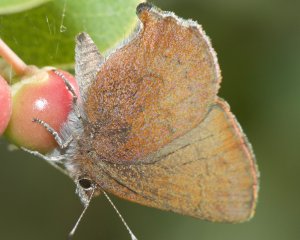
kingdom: Animalia
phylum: Arthropoda
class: Insecta
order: Lepidoptera
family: Lycaenidae
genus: Incisalia
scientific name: Incisalia irioides
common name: Brown Elfin
